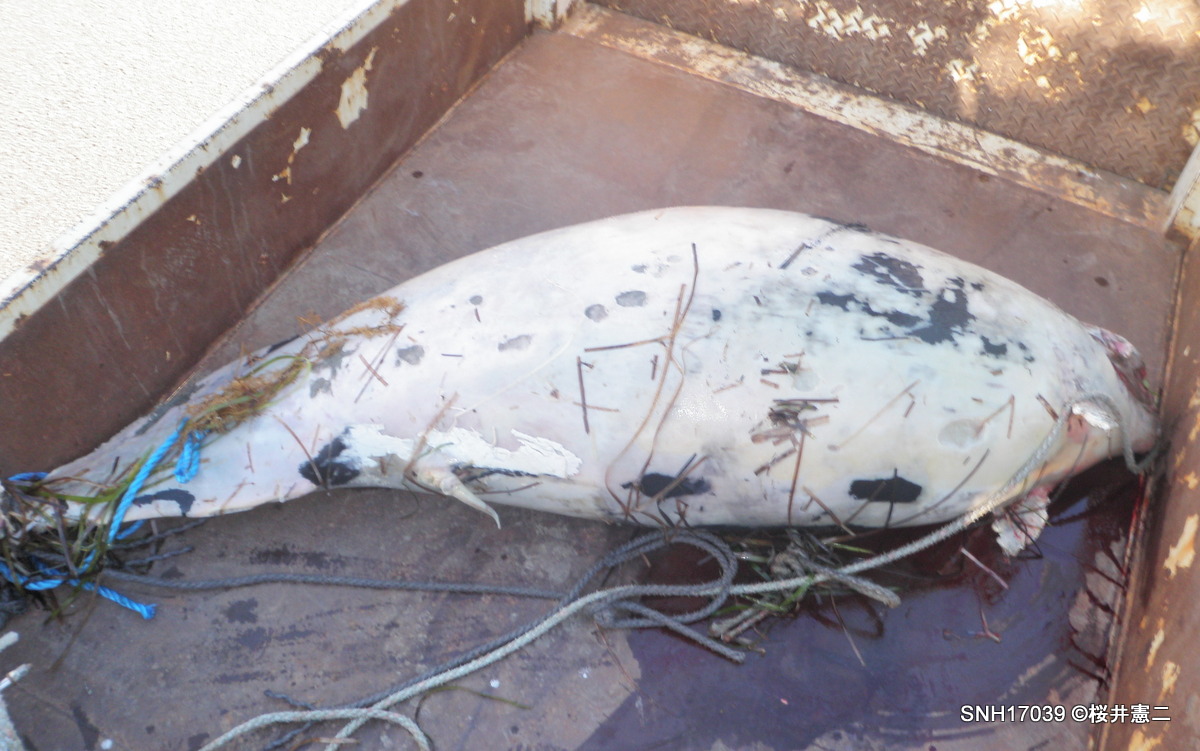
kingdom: Animalia
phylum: Chordata
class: Mammalia
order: Cetacea
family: Phocoenidae
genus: Phocoenoides
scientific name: Phocoenoides dalli
